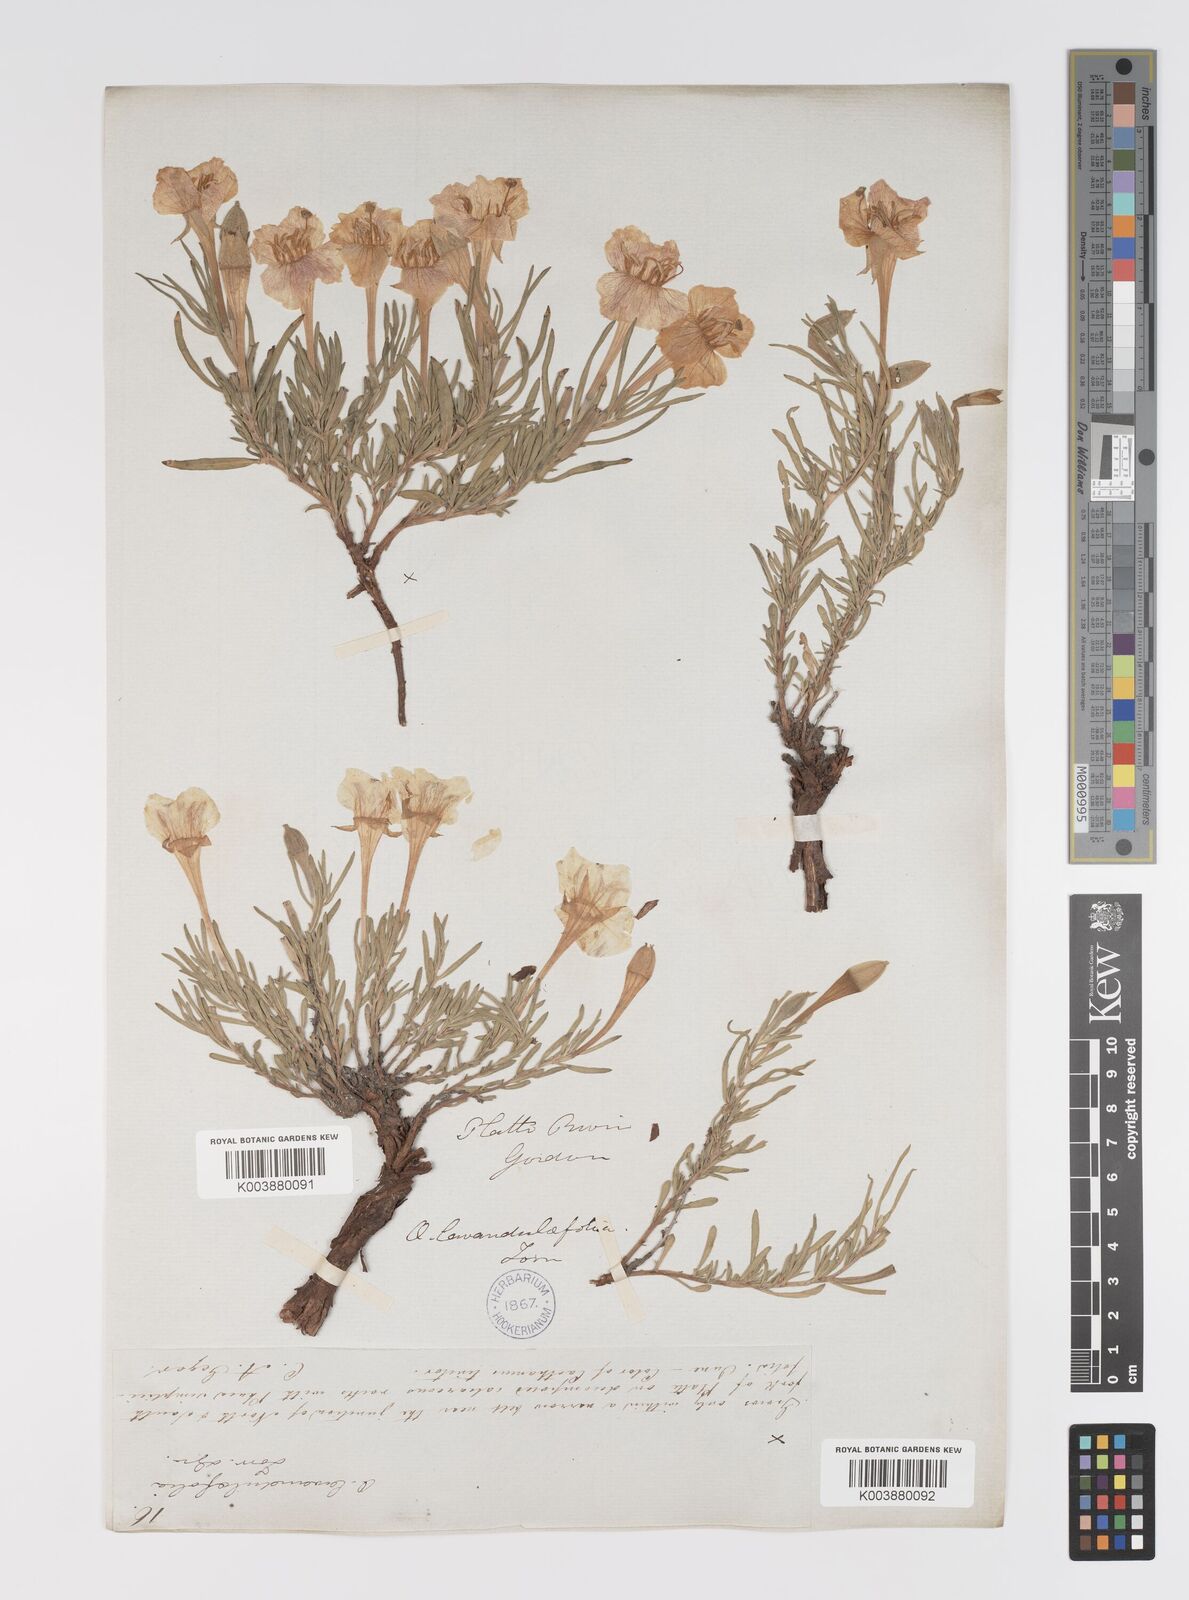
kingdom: Plantae
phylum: Tracheophyta
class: Magnoliopsida
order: Myrtales
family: Onagraceae
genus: Oenothera
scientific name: Oenothera lavandulifolia
